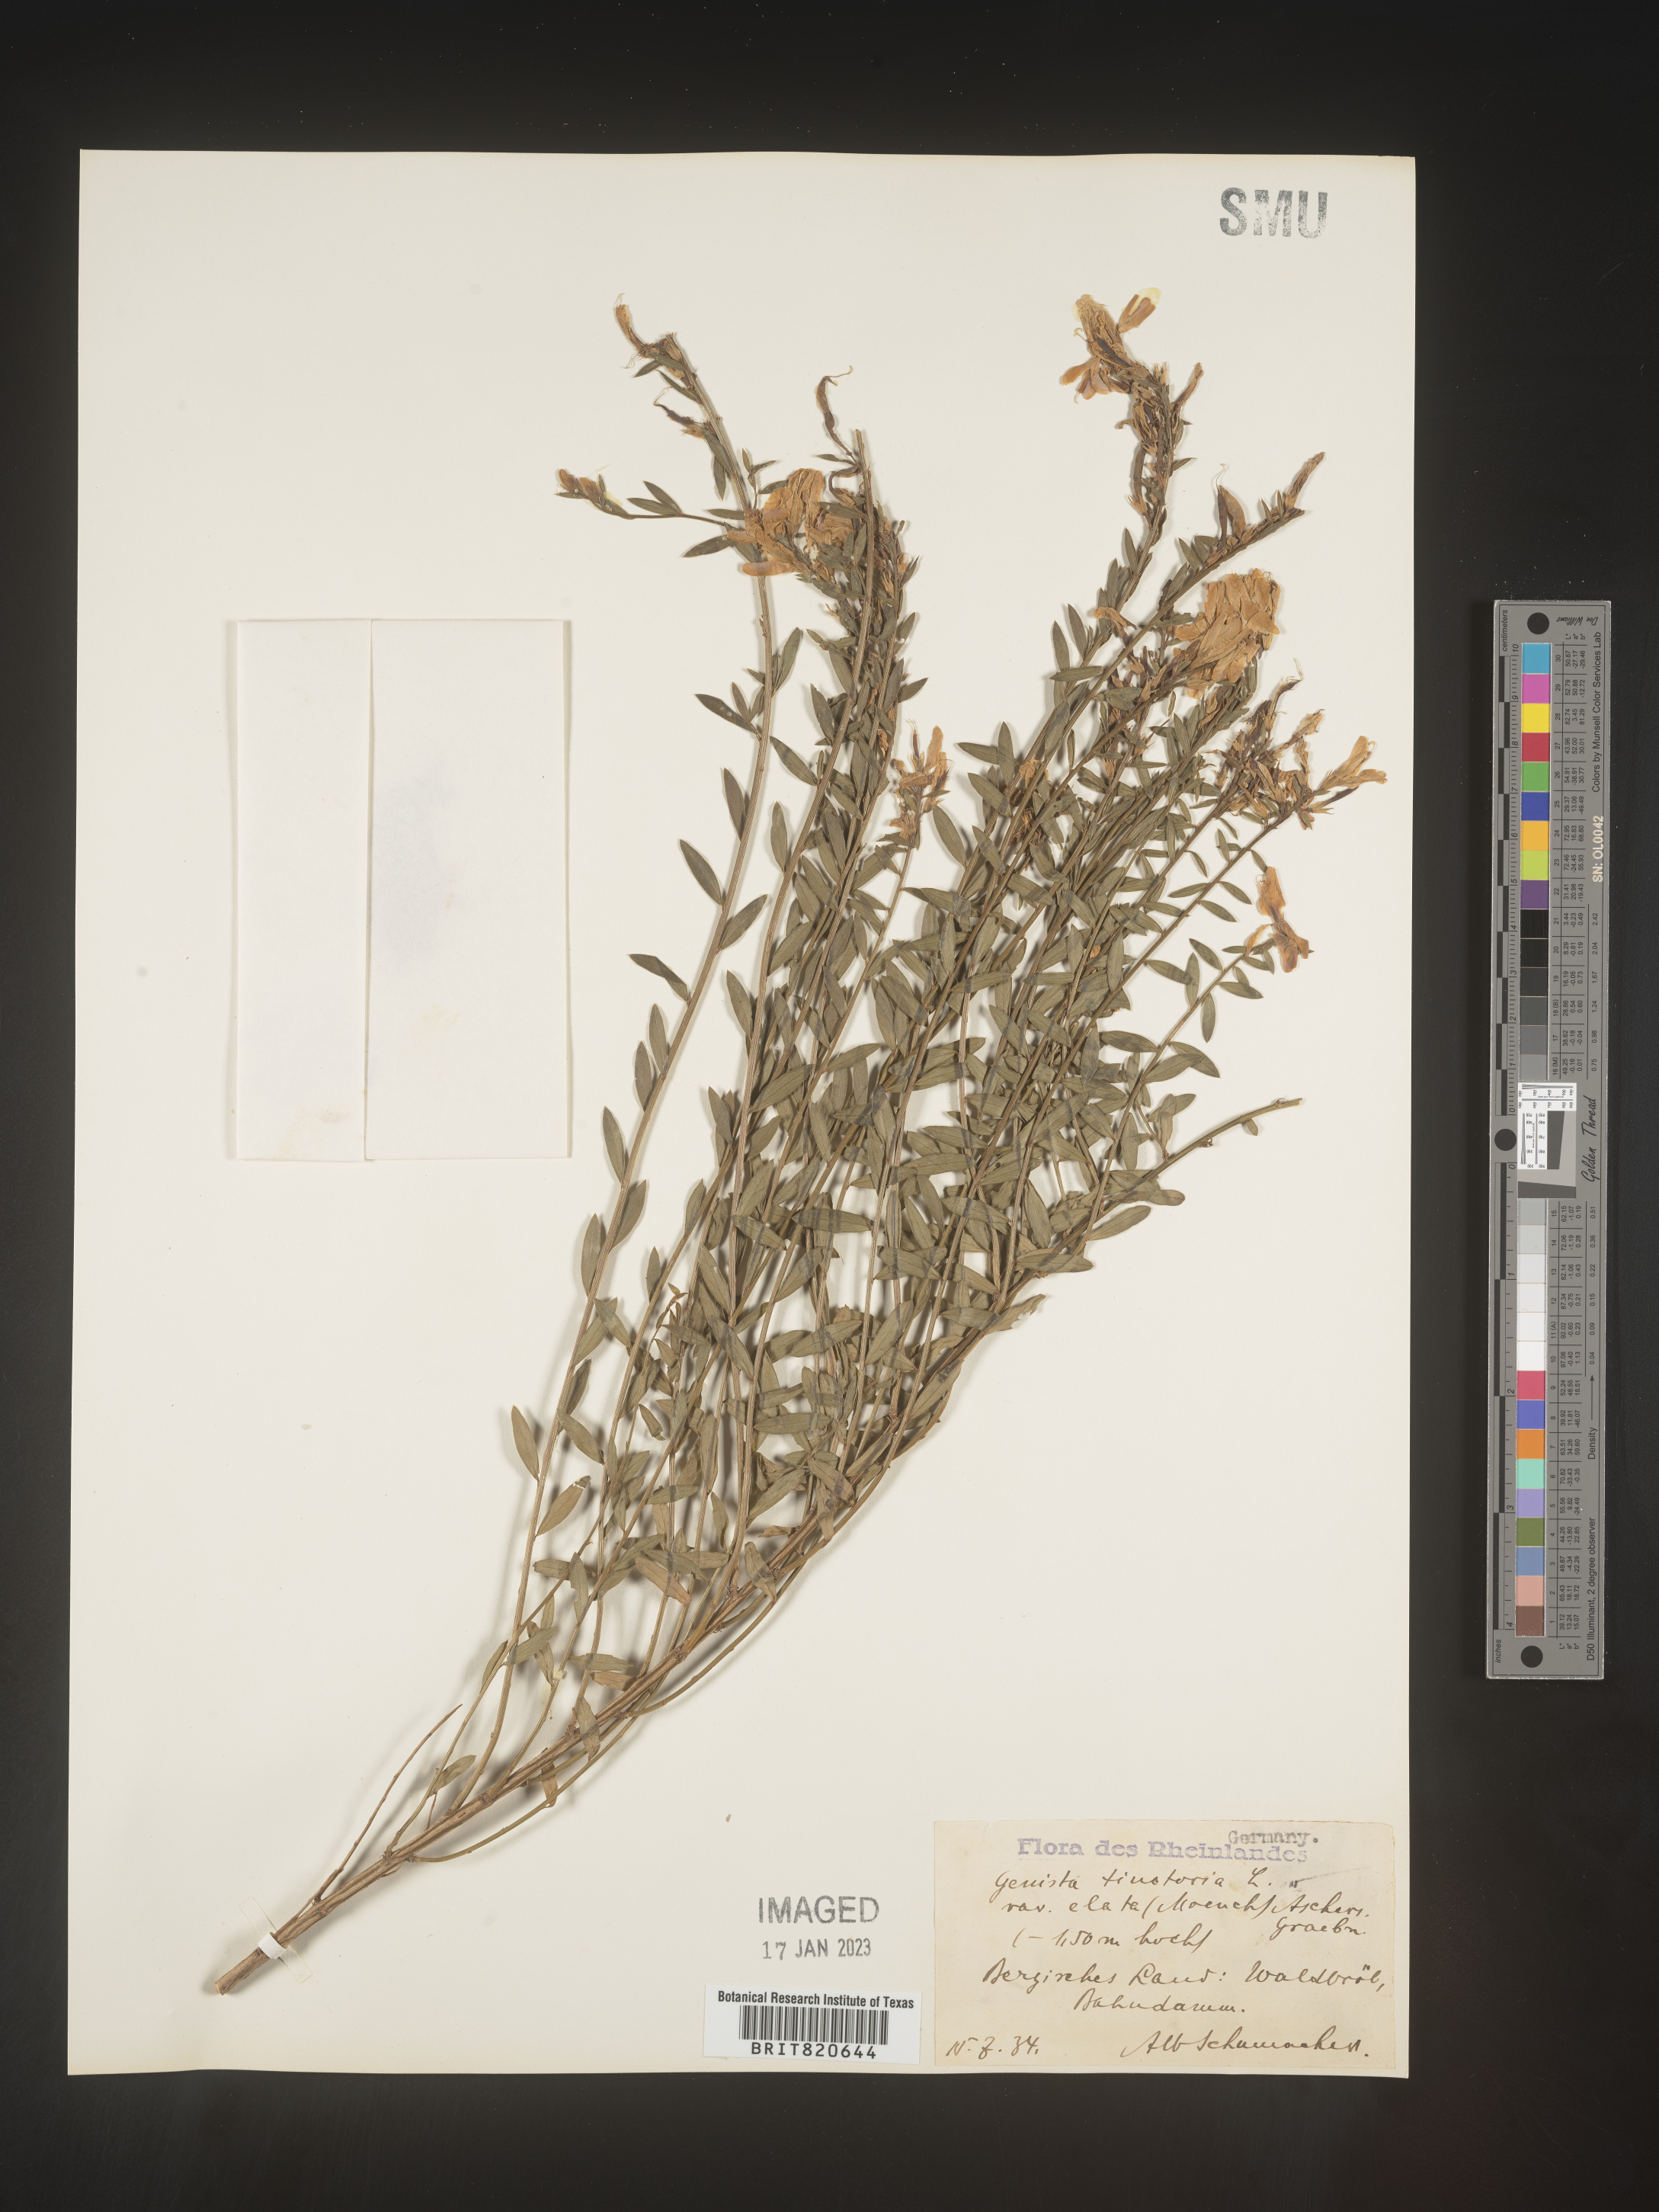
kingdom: Plantae
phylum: Tracheophyta
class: Magnoliopsida
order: Fabales
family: Fabaceae
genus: Genista
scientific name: Genista tinctoria
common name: Dyer's greenweed
